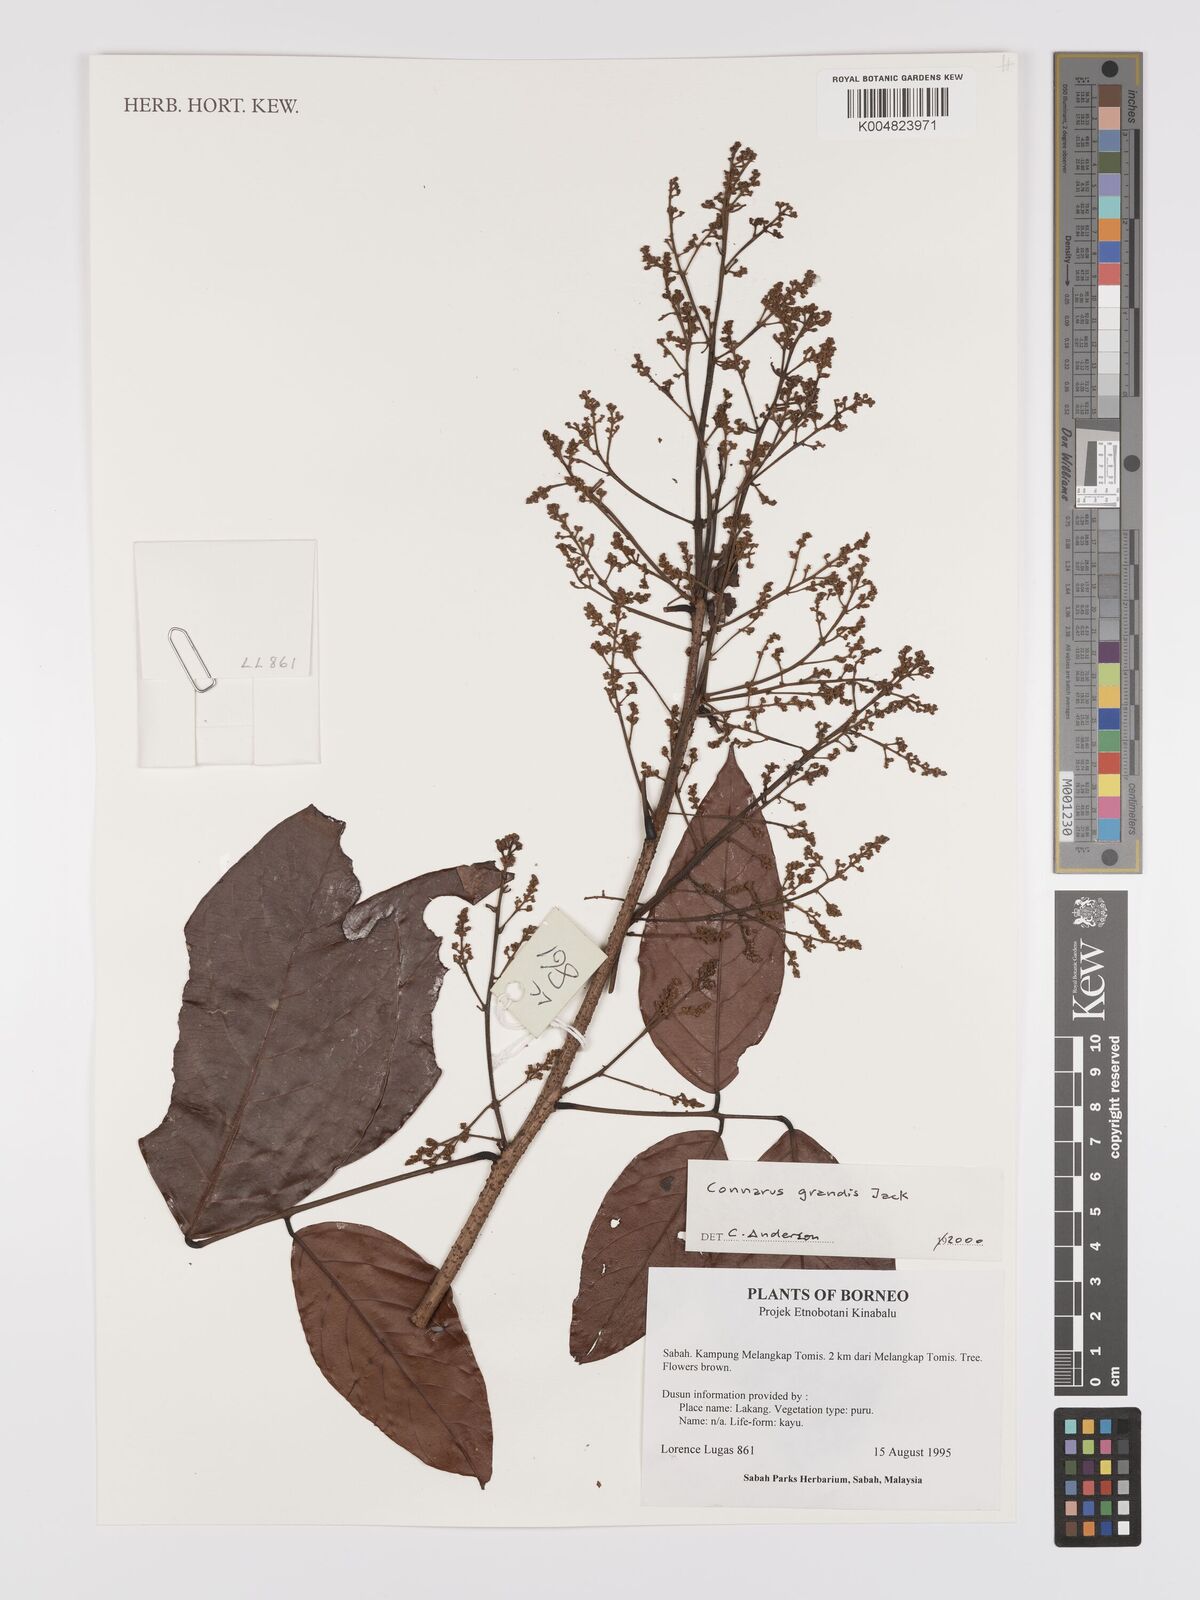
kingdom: Plantae
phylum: Tracheophyta
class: Magnoliopsida
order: Oxalidales
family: Connaraceae
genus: Connarus
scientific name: Connarus grandis
